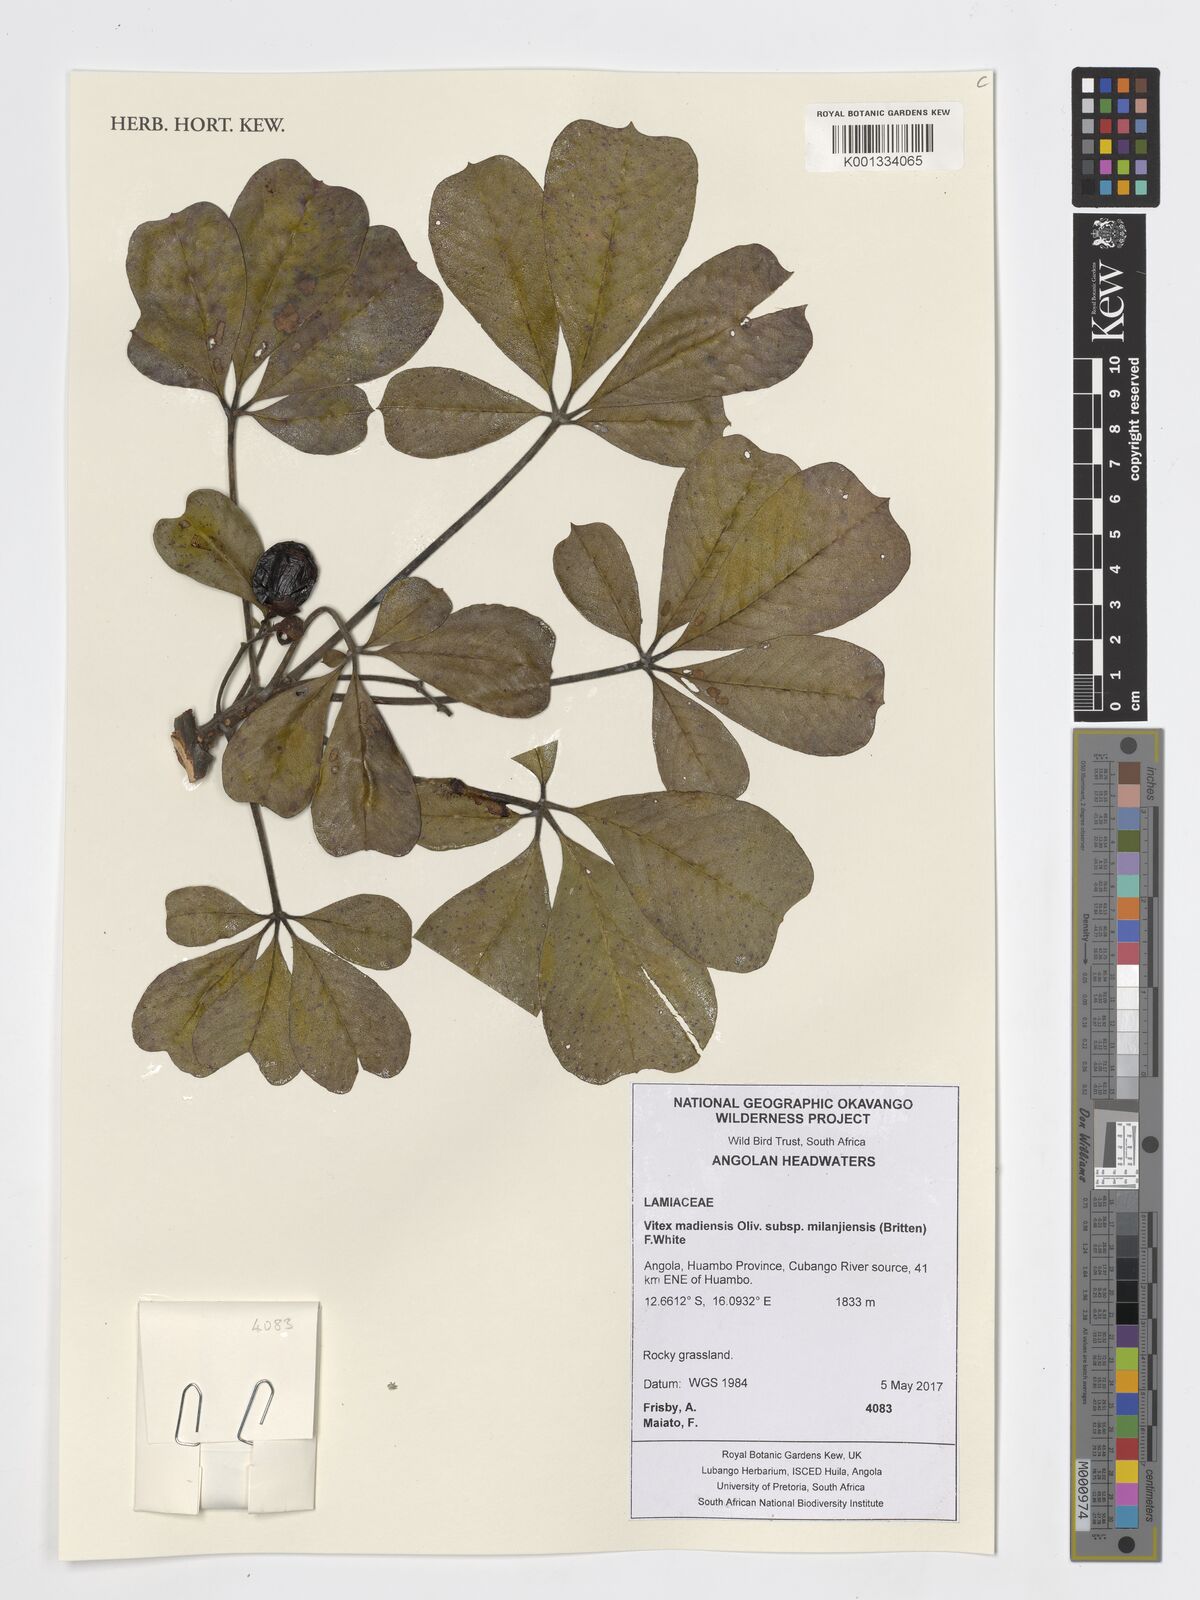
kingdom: Plantae
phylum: Tracheophyta
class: Magnoliopsida
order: Lamiales
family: Lamiaceae
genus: Vitex
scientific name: Vitex madiensis
